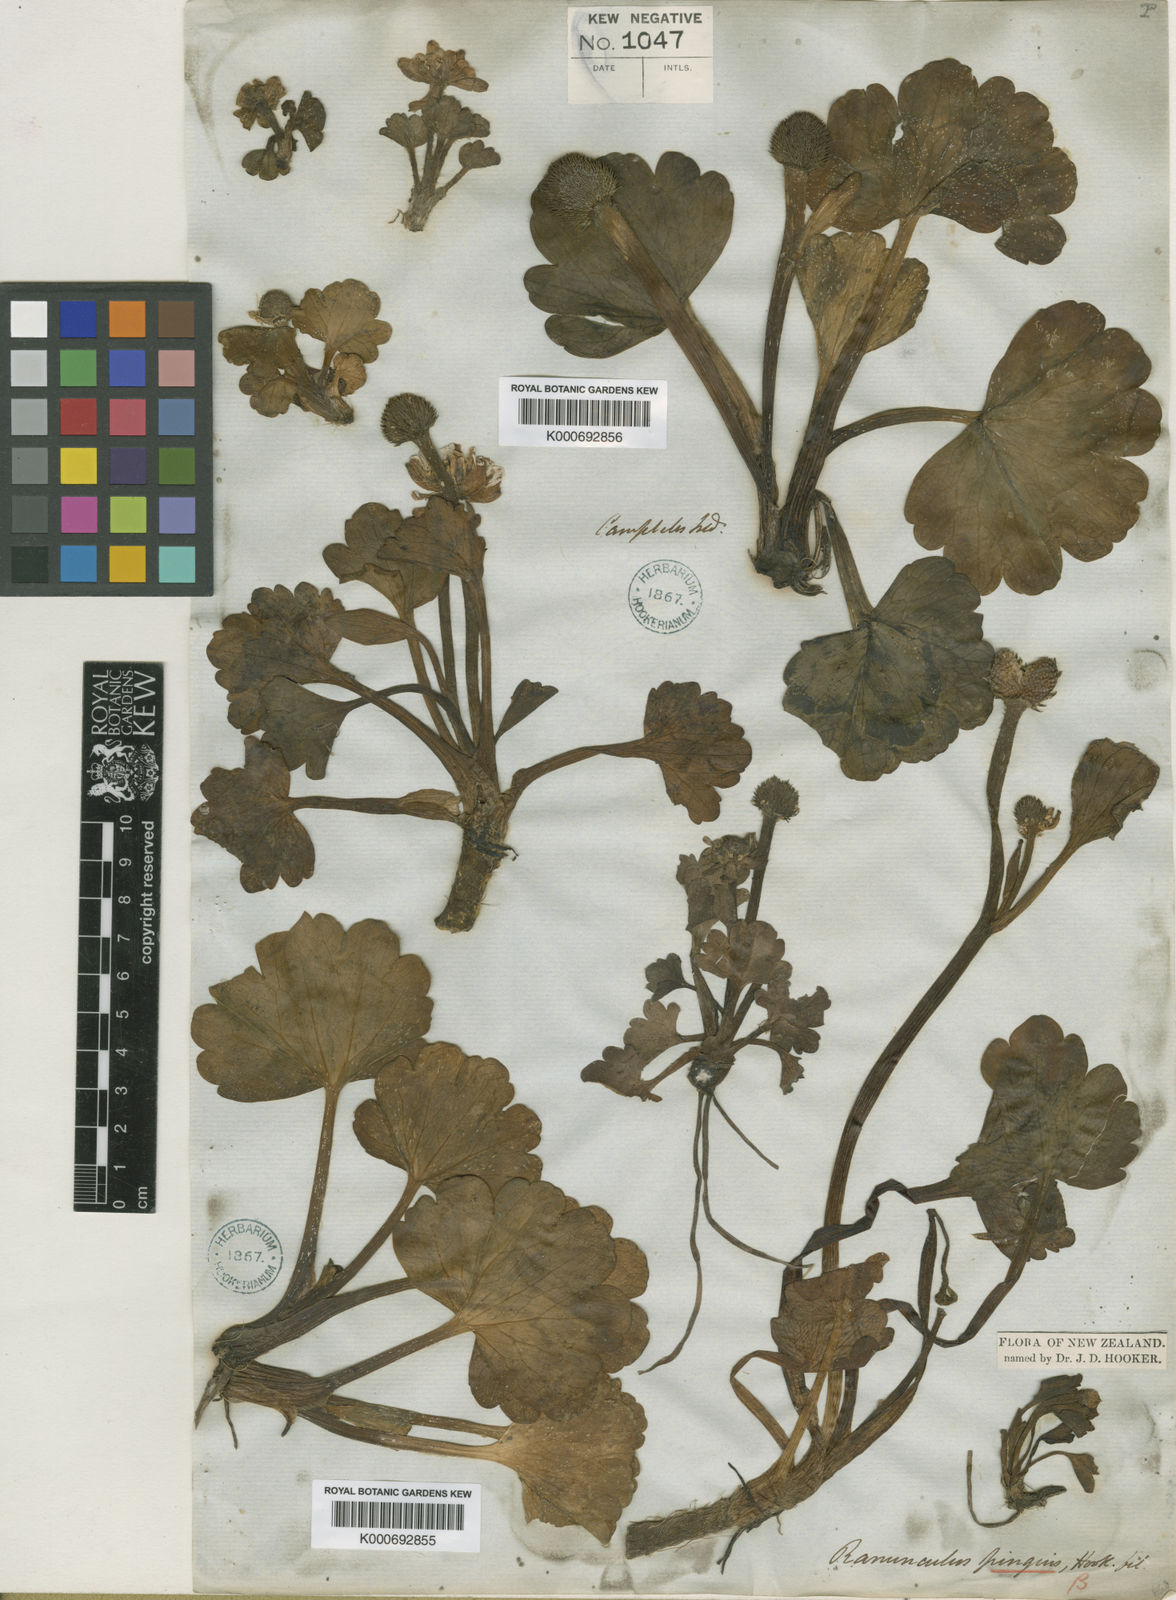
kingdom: Plantae
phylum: Tracheophyta
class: Magnoliopsida
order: Ranunculales
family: Ranunculaceae
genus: Ranunculus
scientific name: Ranunculus pinguis
